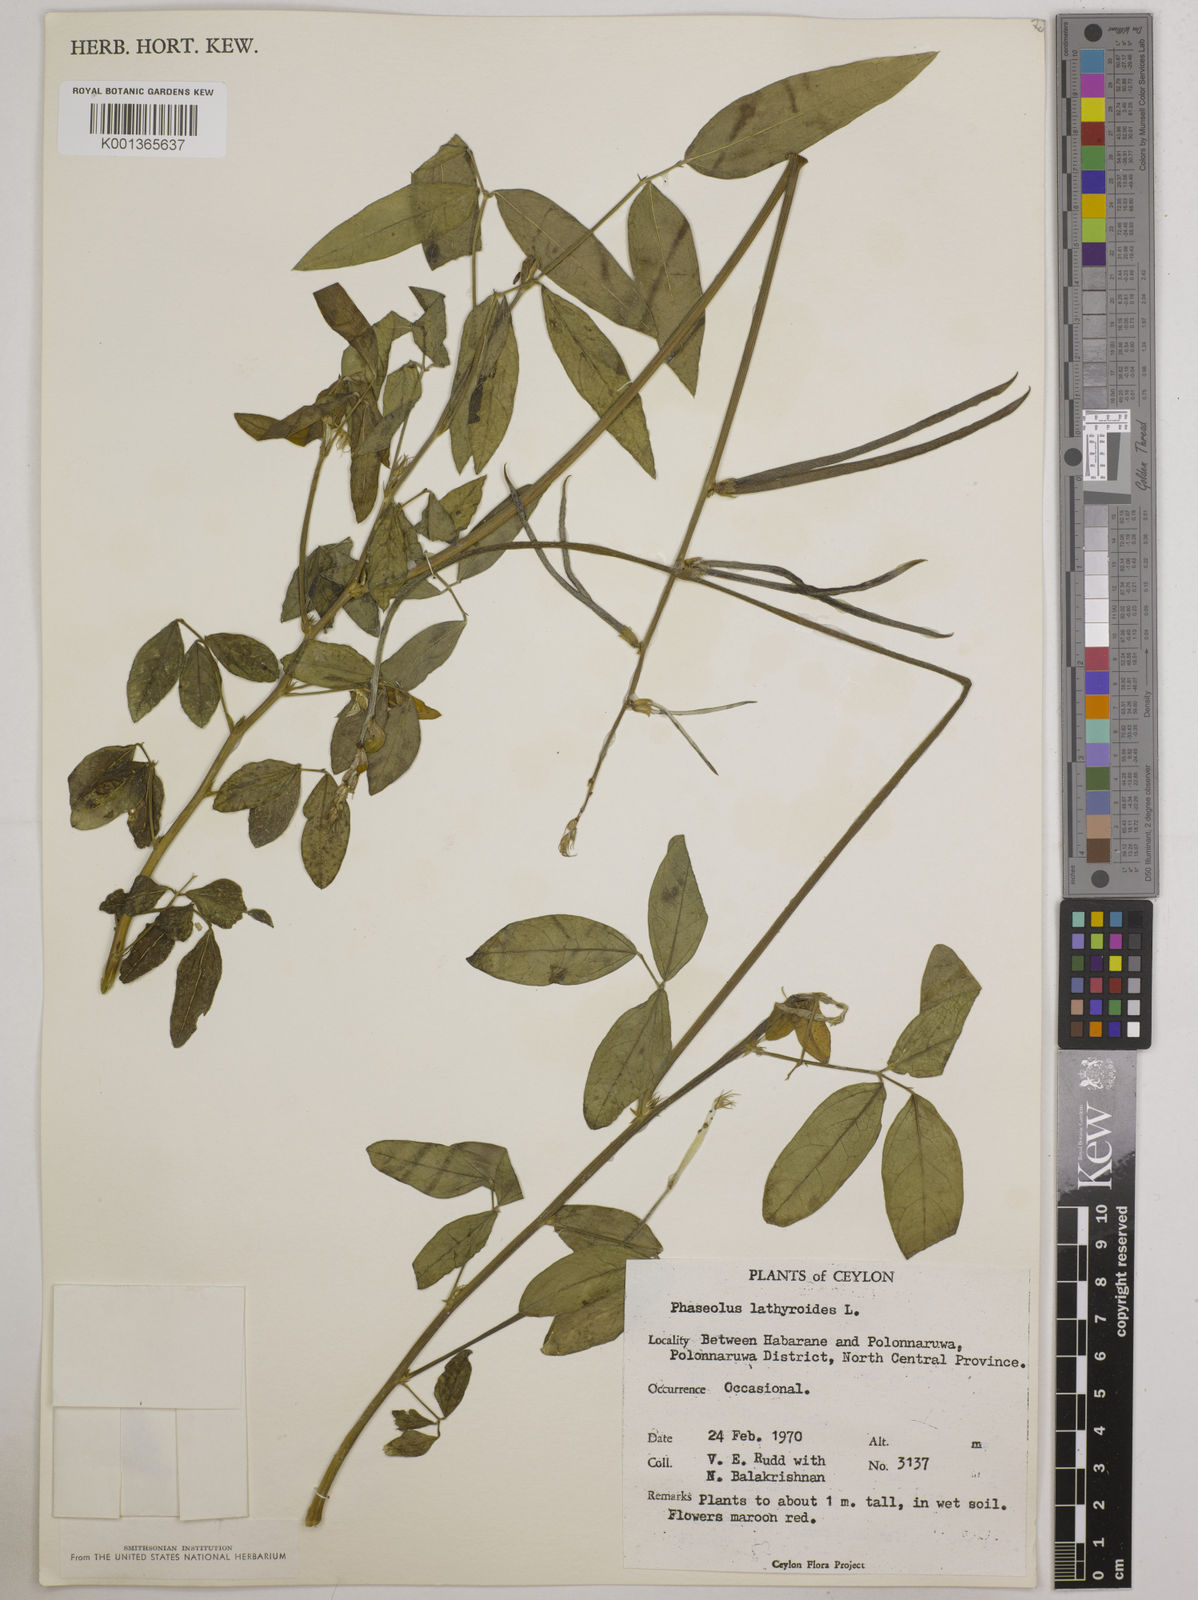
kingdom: Plantae
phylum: Tracheophyta
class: Magnoliopsida
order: Fabales
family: Fabaceae
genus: Macroptilium
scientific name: Macroptilium lathyroides
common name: Wild bushbean
